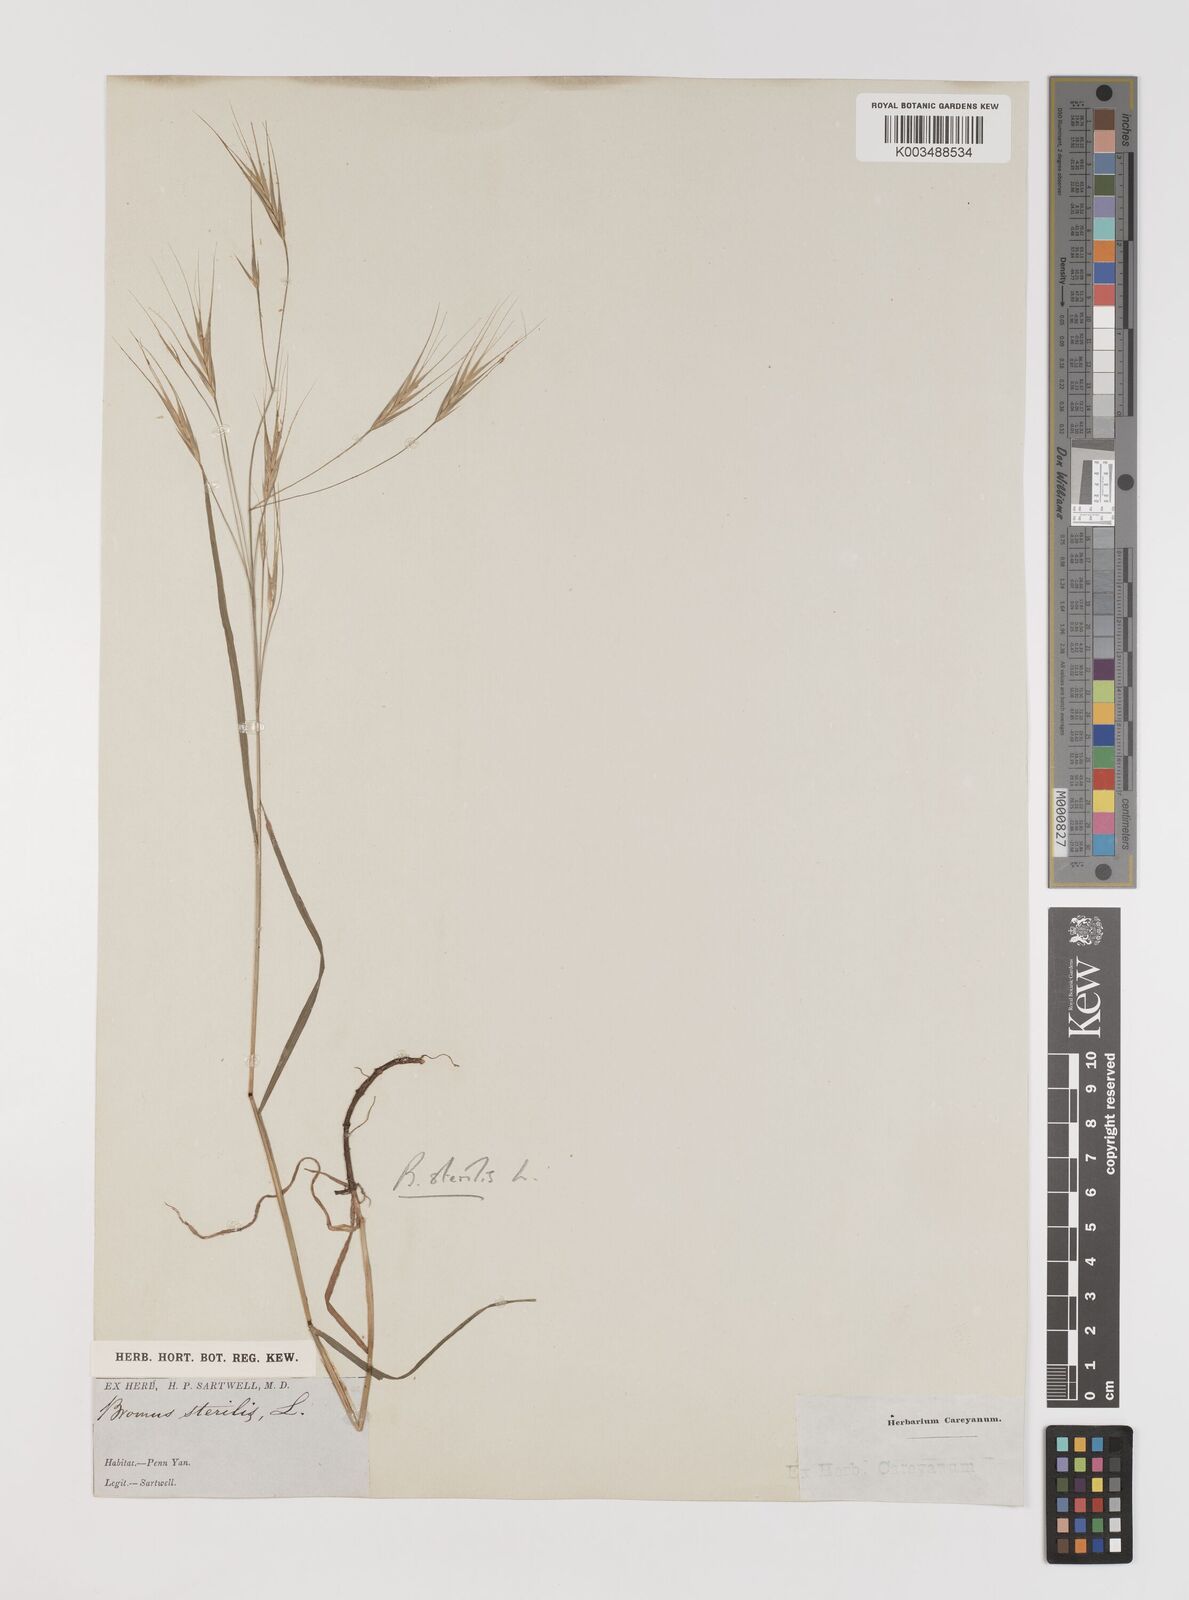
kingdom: Plantae
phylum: Tracheophyta
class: Liliopsida
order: Poales
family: Poaceae
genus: Bromus
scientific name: Bromus sterilis
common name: Poverty brome
